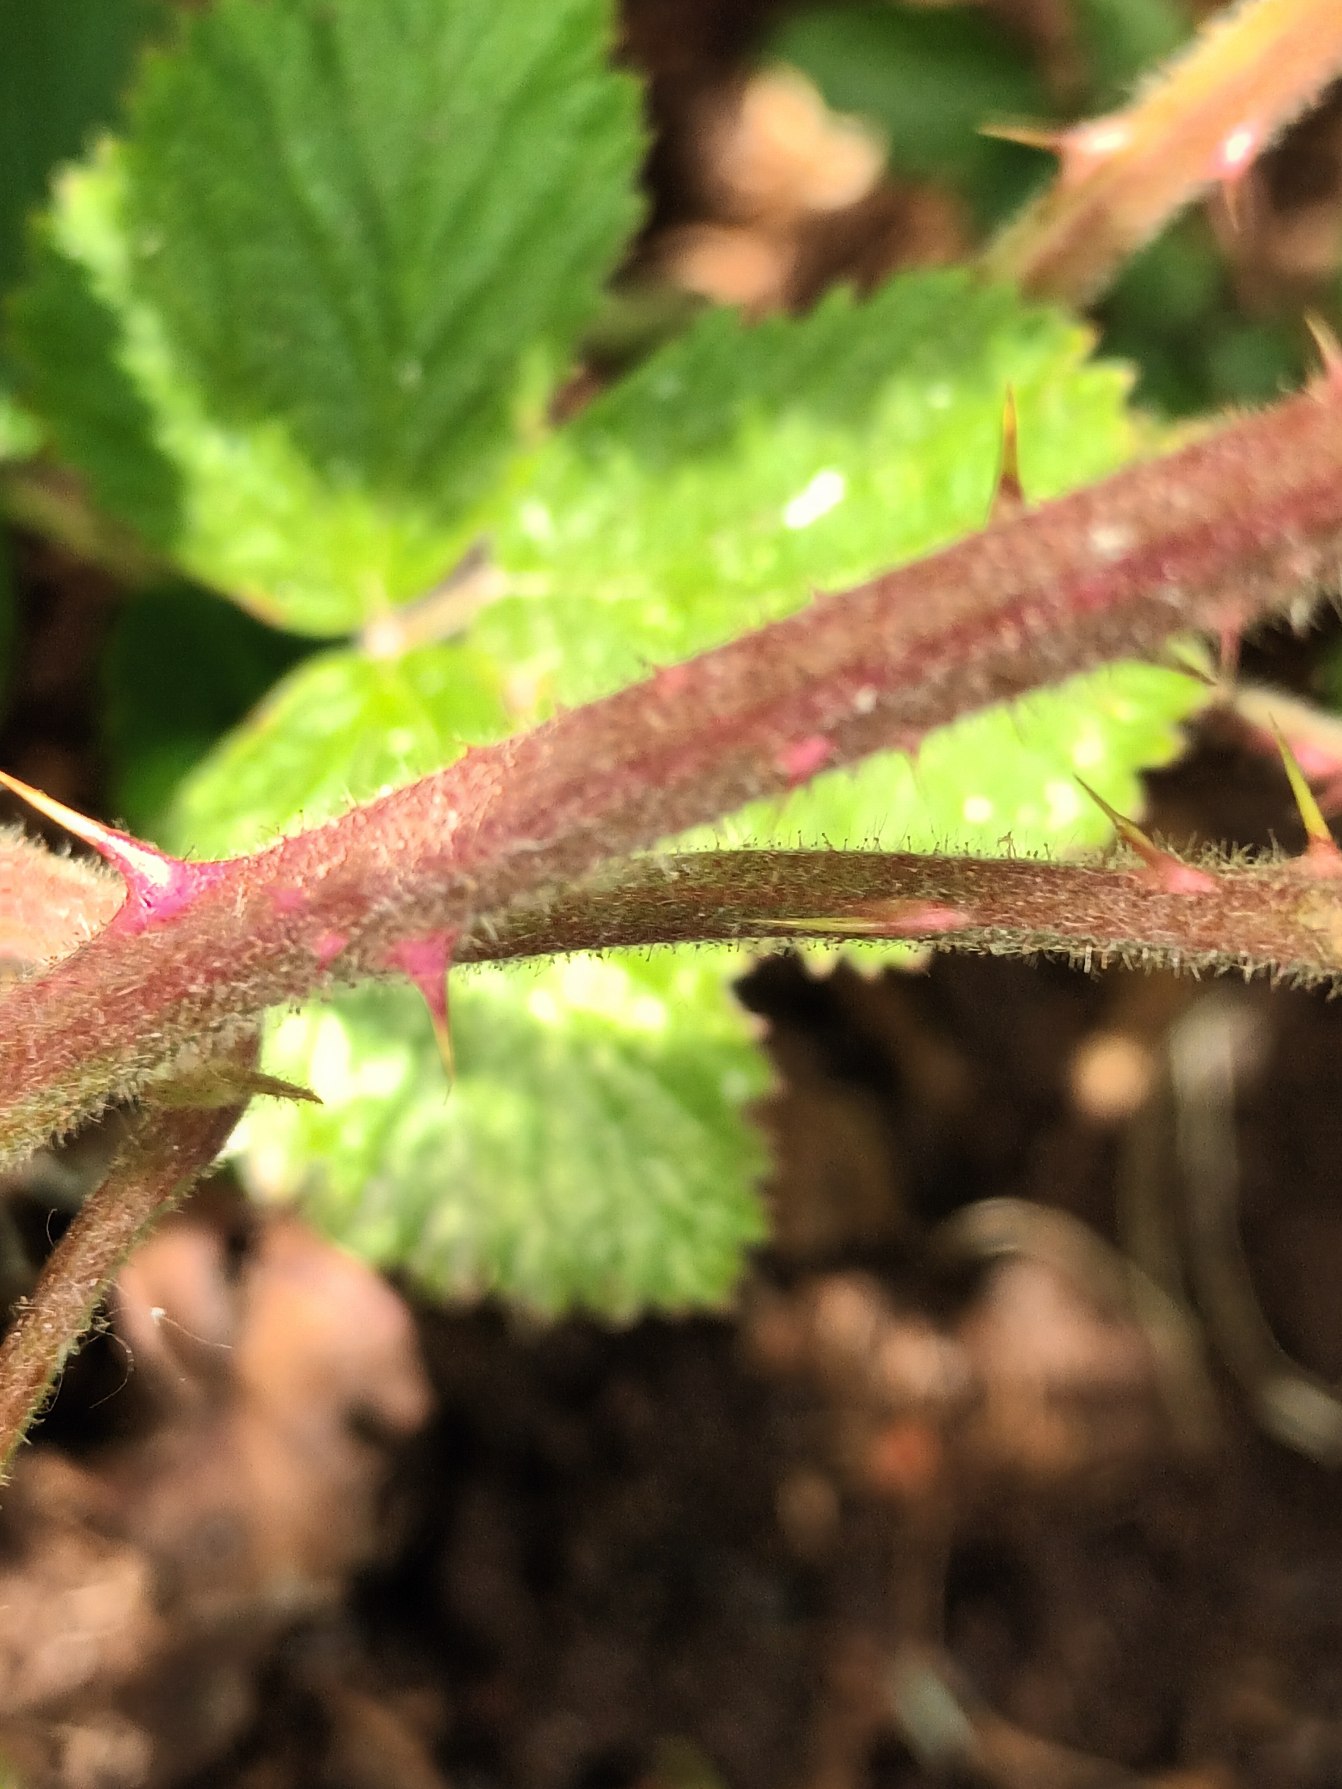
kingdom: Plantae
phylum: Tracheophyta
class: Magnoliopsida
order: Rosales
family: Rosaceae
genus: Rubus
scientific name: Rubus
